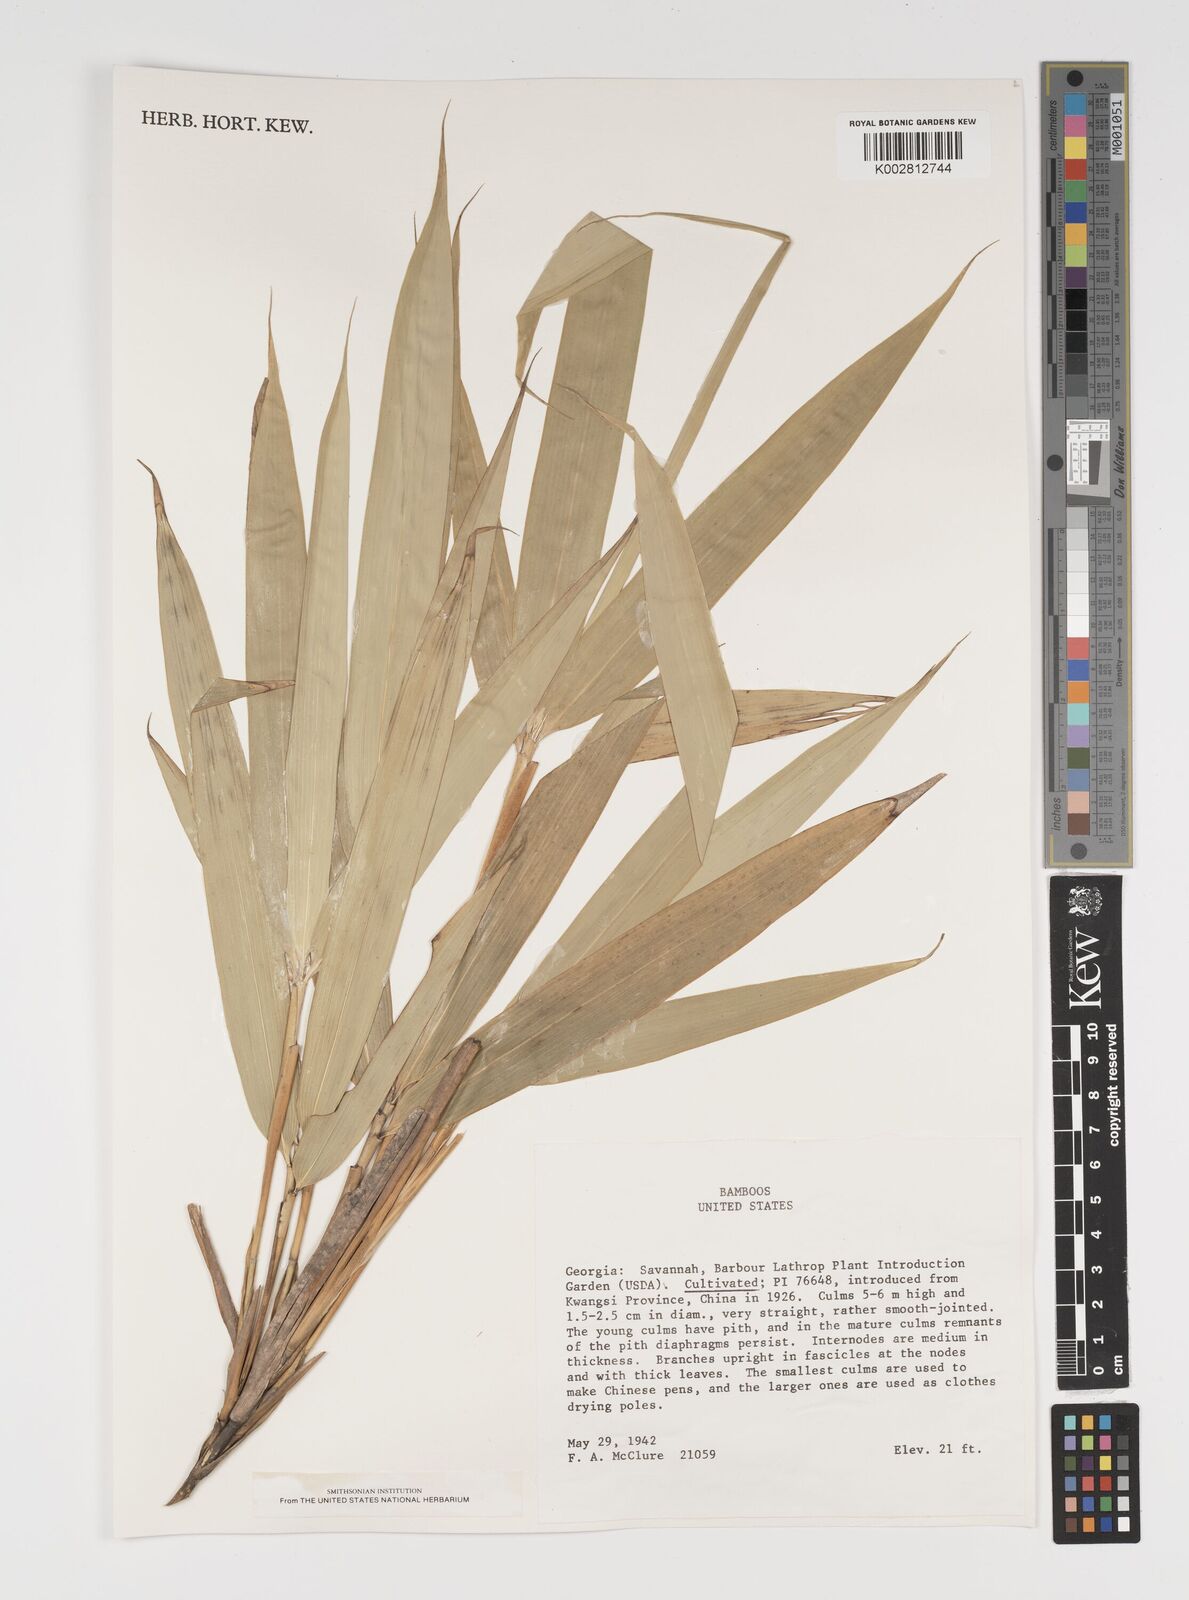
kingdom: Plantae
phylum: Tracheophyta
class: Liliopsida
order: Poales
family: Poaceae
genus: Arundinaria
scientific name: Arundinaria
